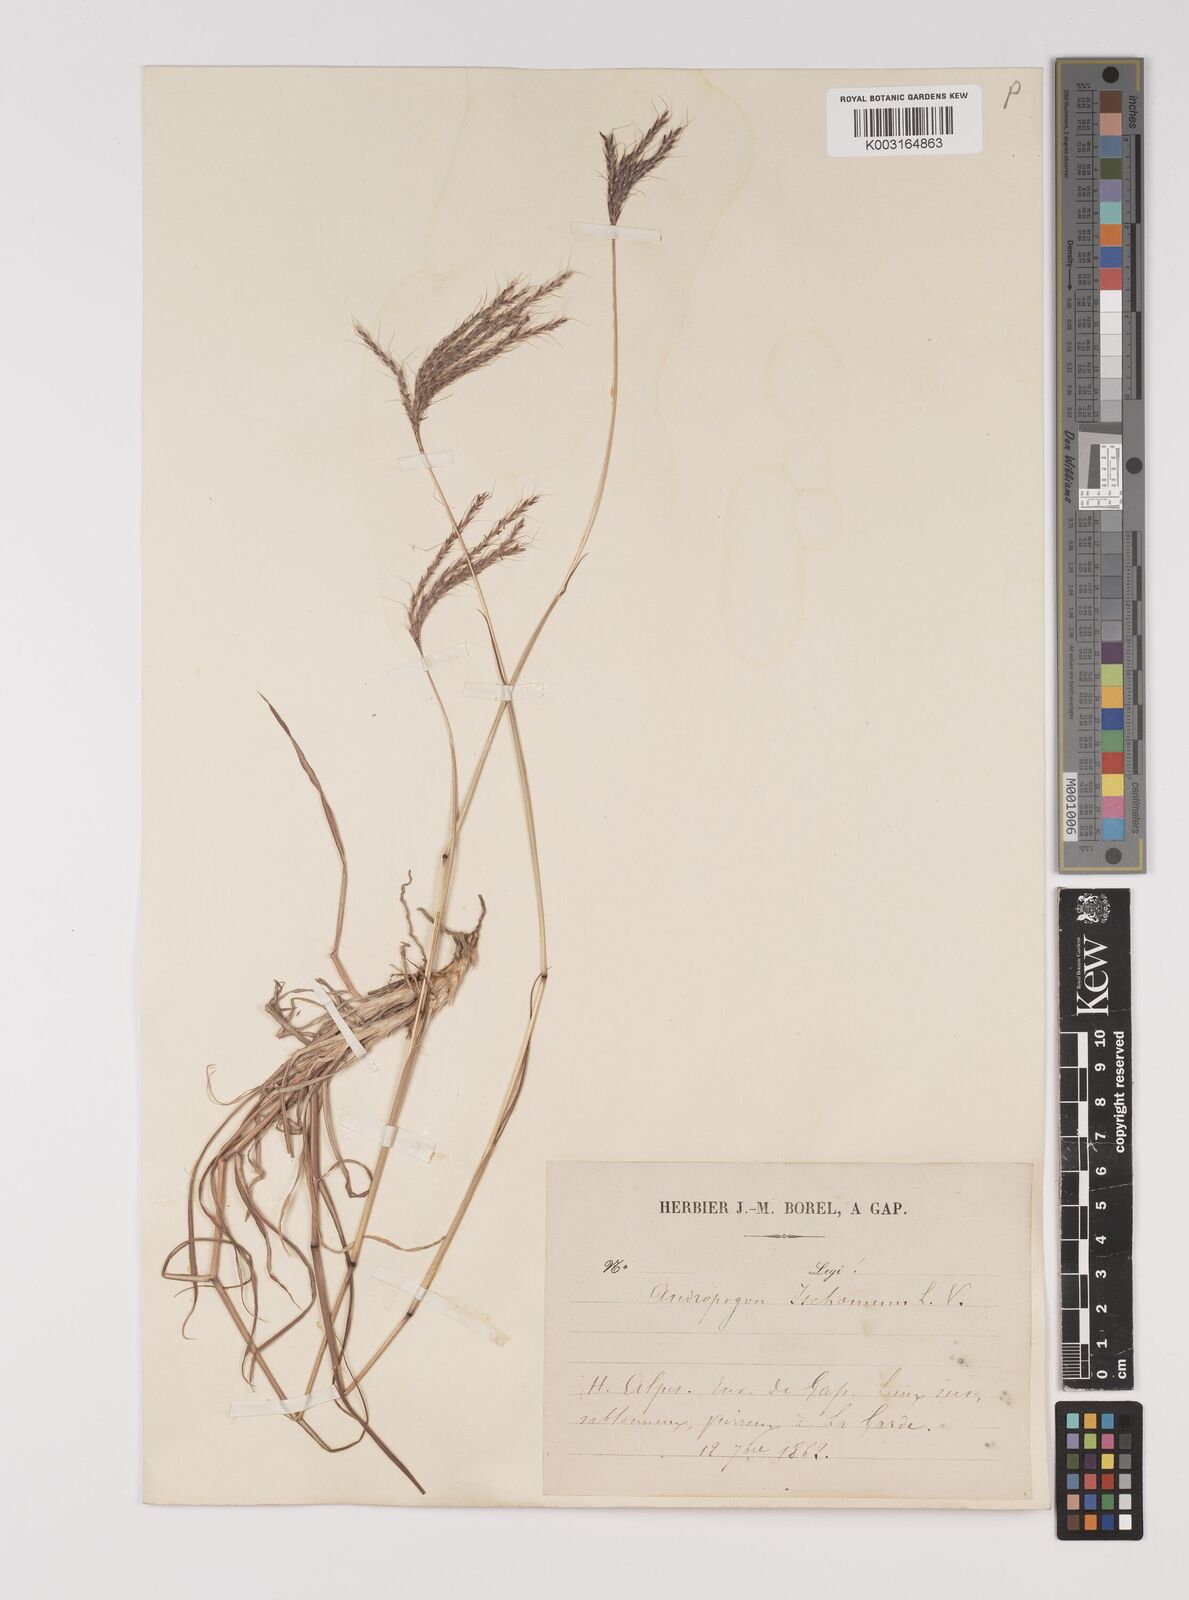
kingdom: Plantae
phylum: Tracheophyta
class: Liliopsida
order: Poales
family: Poaceae
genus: Bothriochloa
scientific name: Bothriochloa ischaemum
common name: Yellow bluestem
